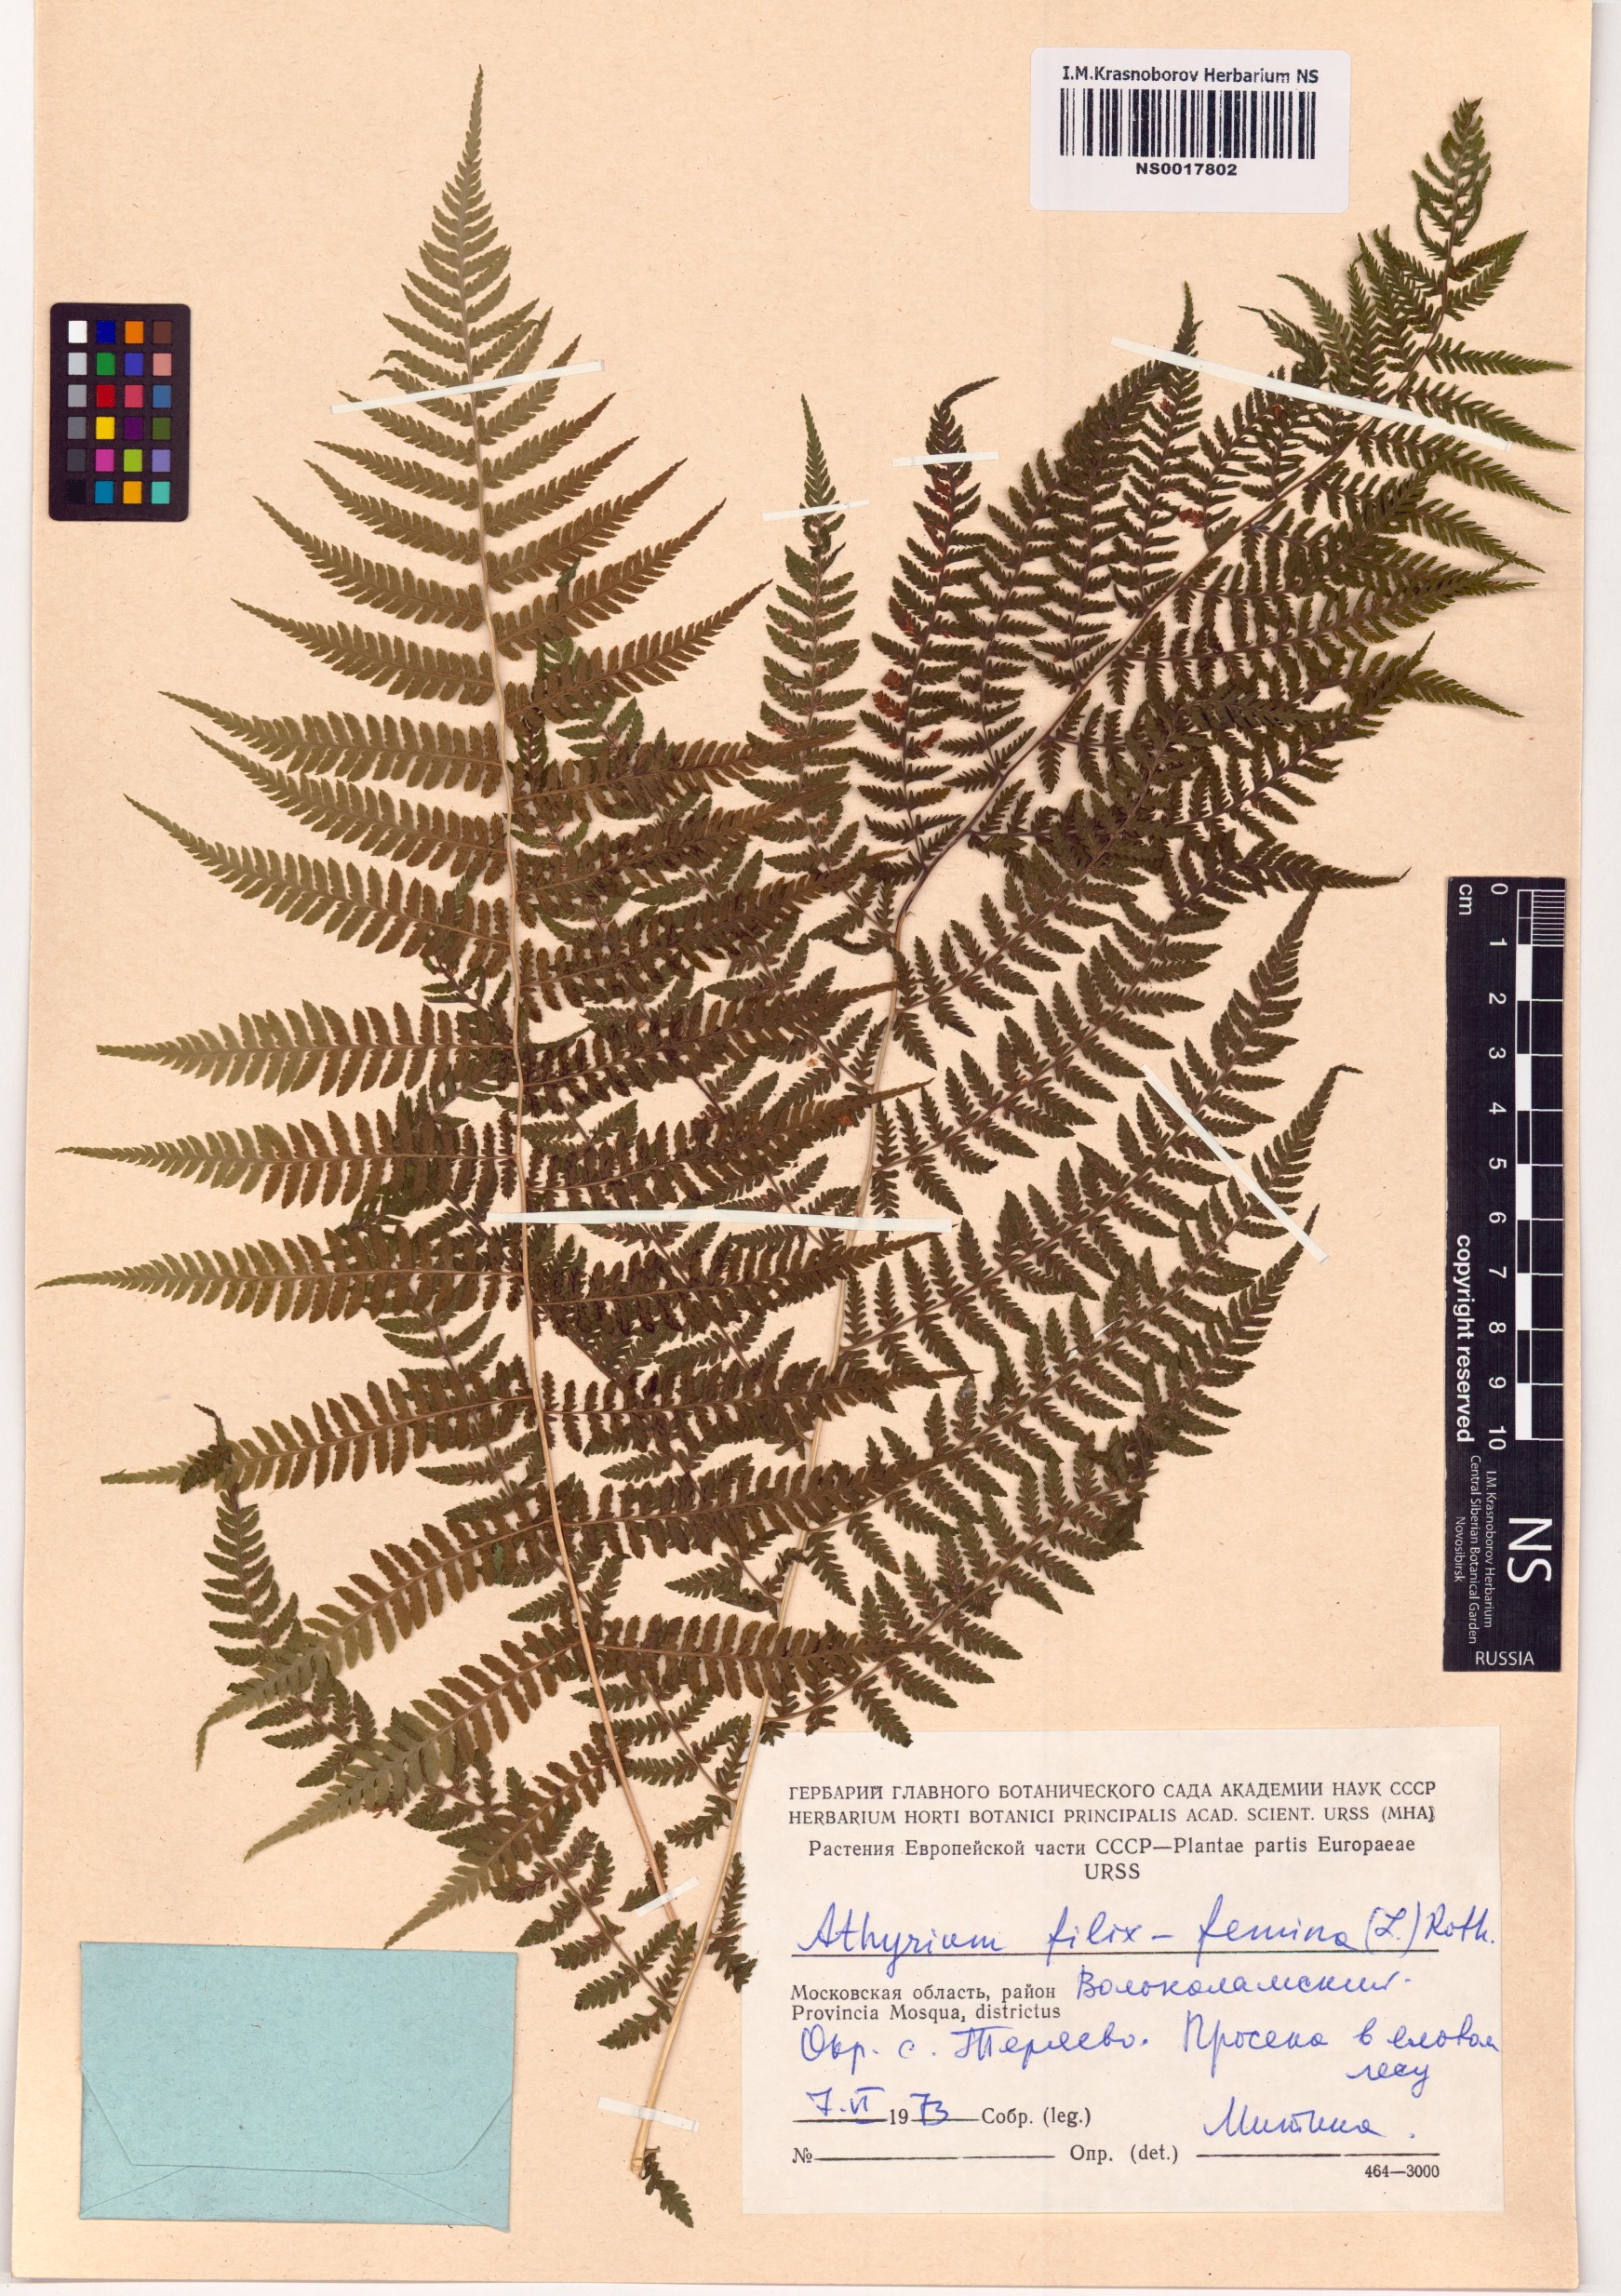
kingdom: Plantae
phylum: Tracheophyta
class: Polypodiopsida
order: Polypodiales
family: Athyriaceae
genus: Athyrium
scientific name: Athyrium filix-femina
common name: Lady fern
